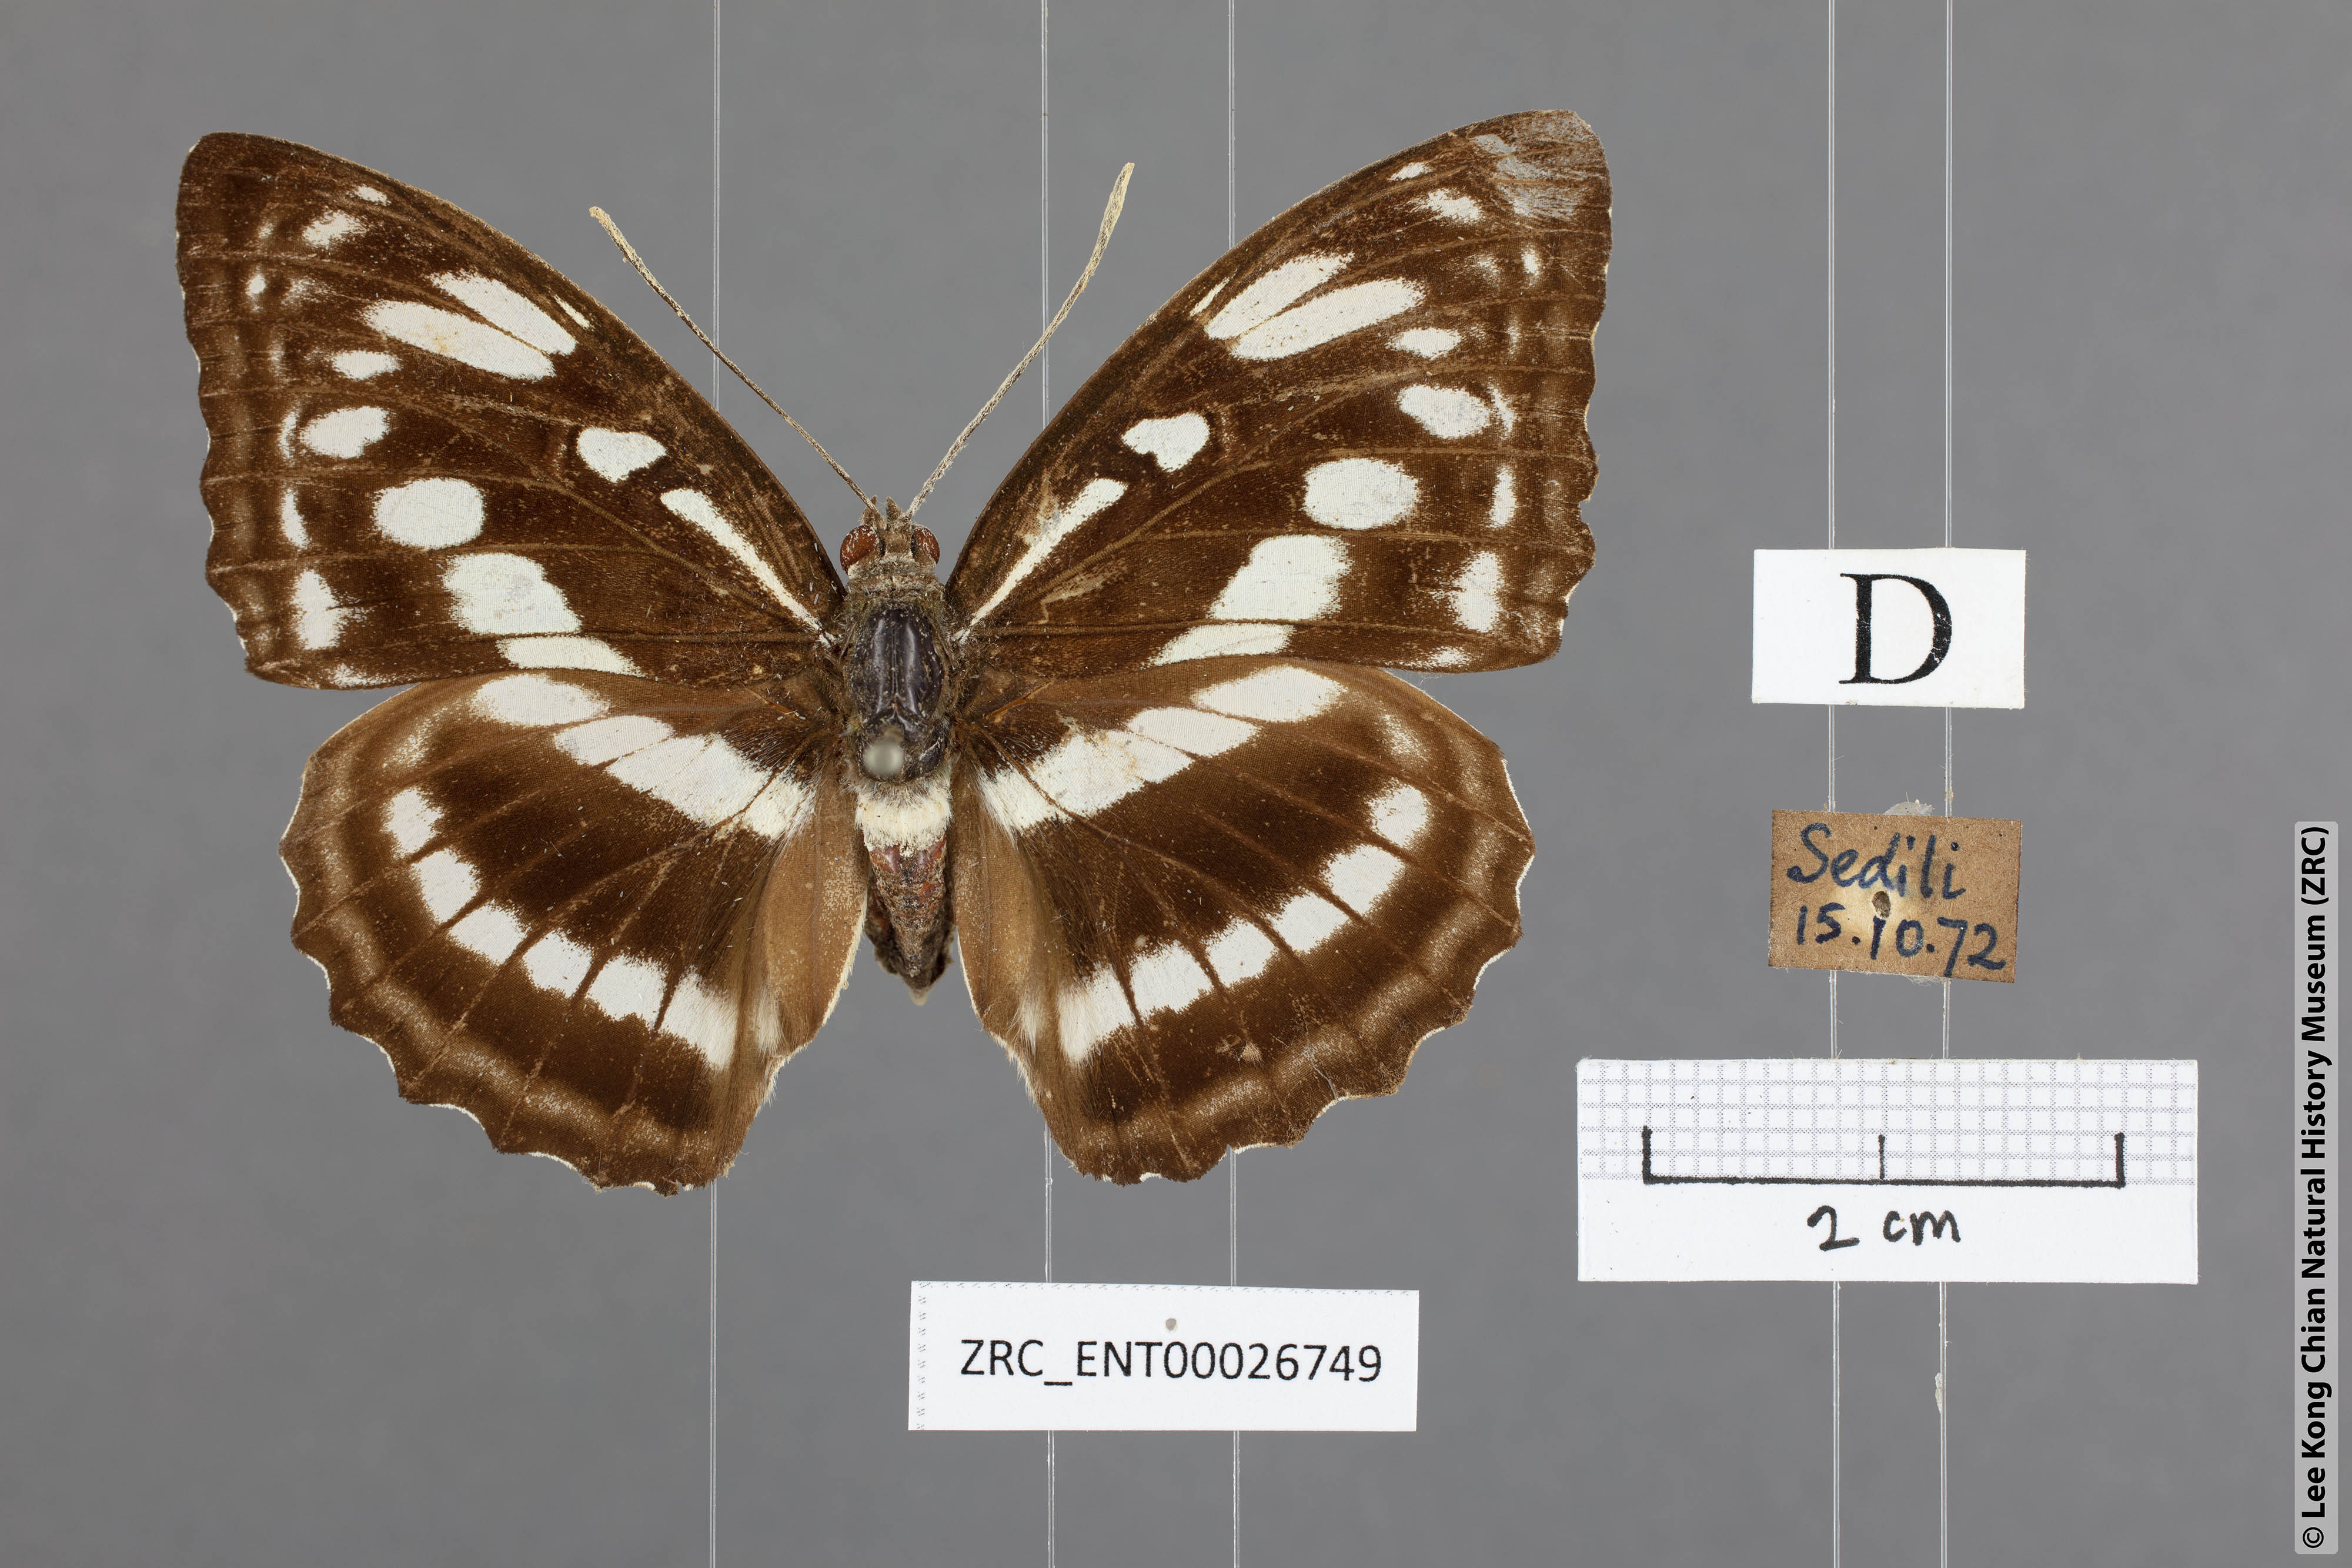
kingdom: Animalia
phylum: Arthropoda
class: Insecta
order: Lepidoptera
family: Nymphalidae
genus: Parathyma
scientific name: Parathyma asura
